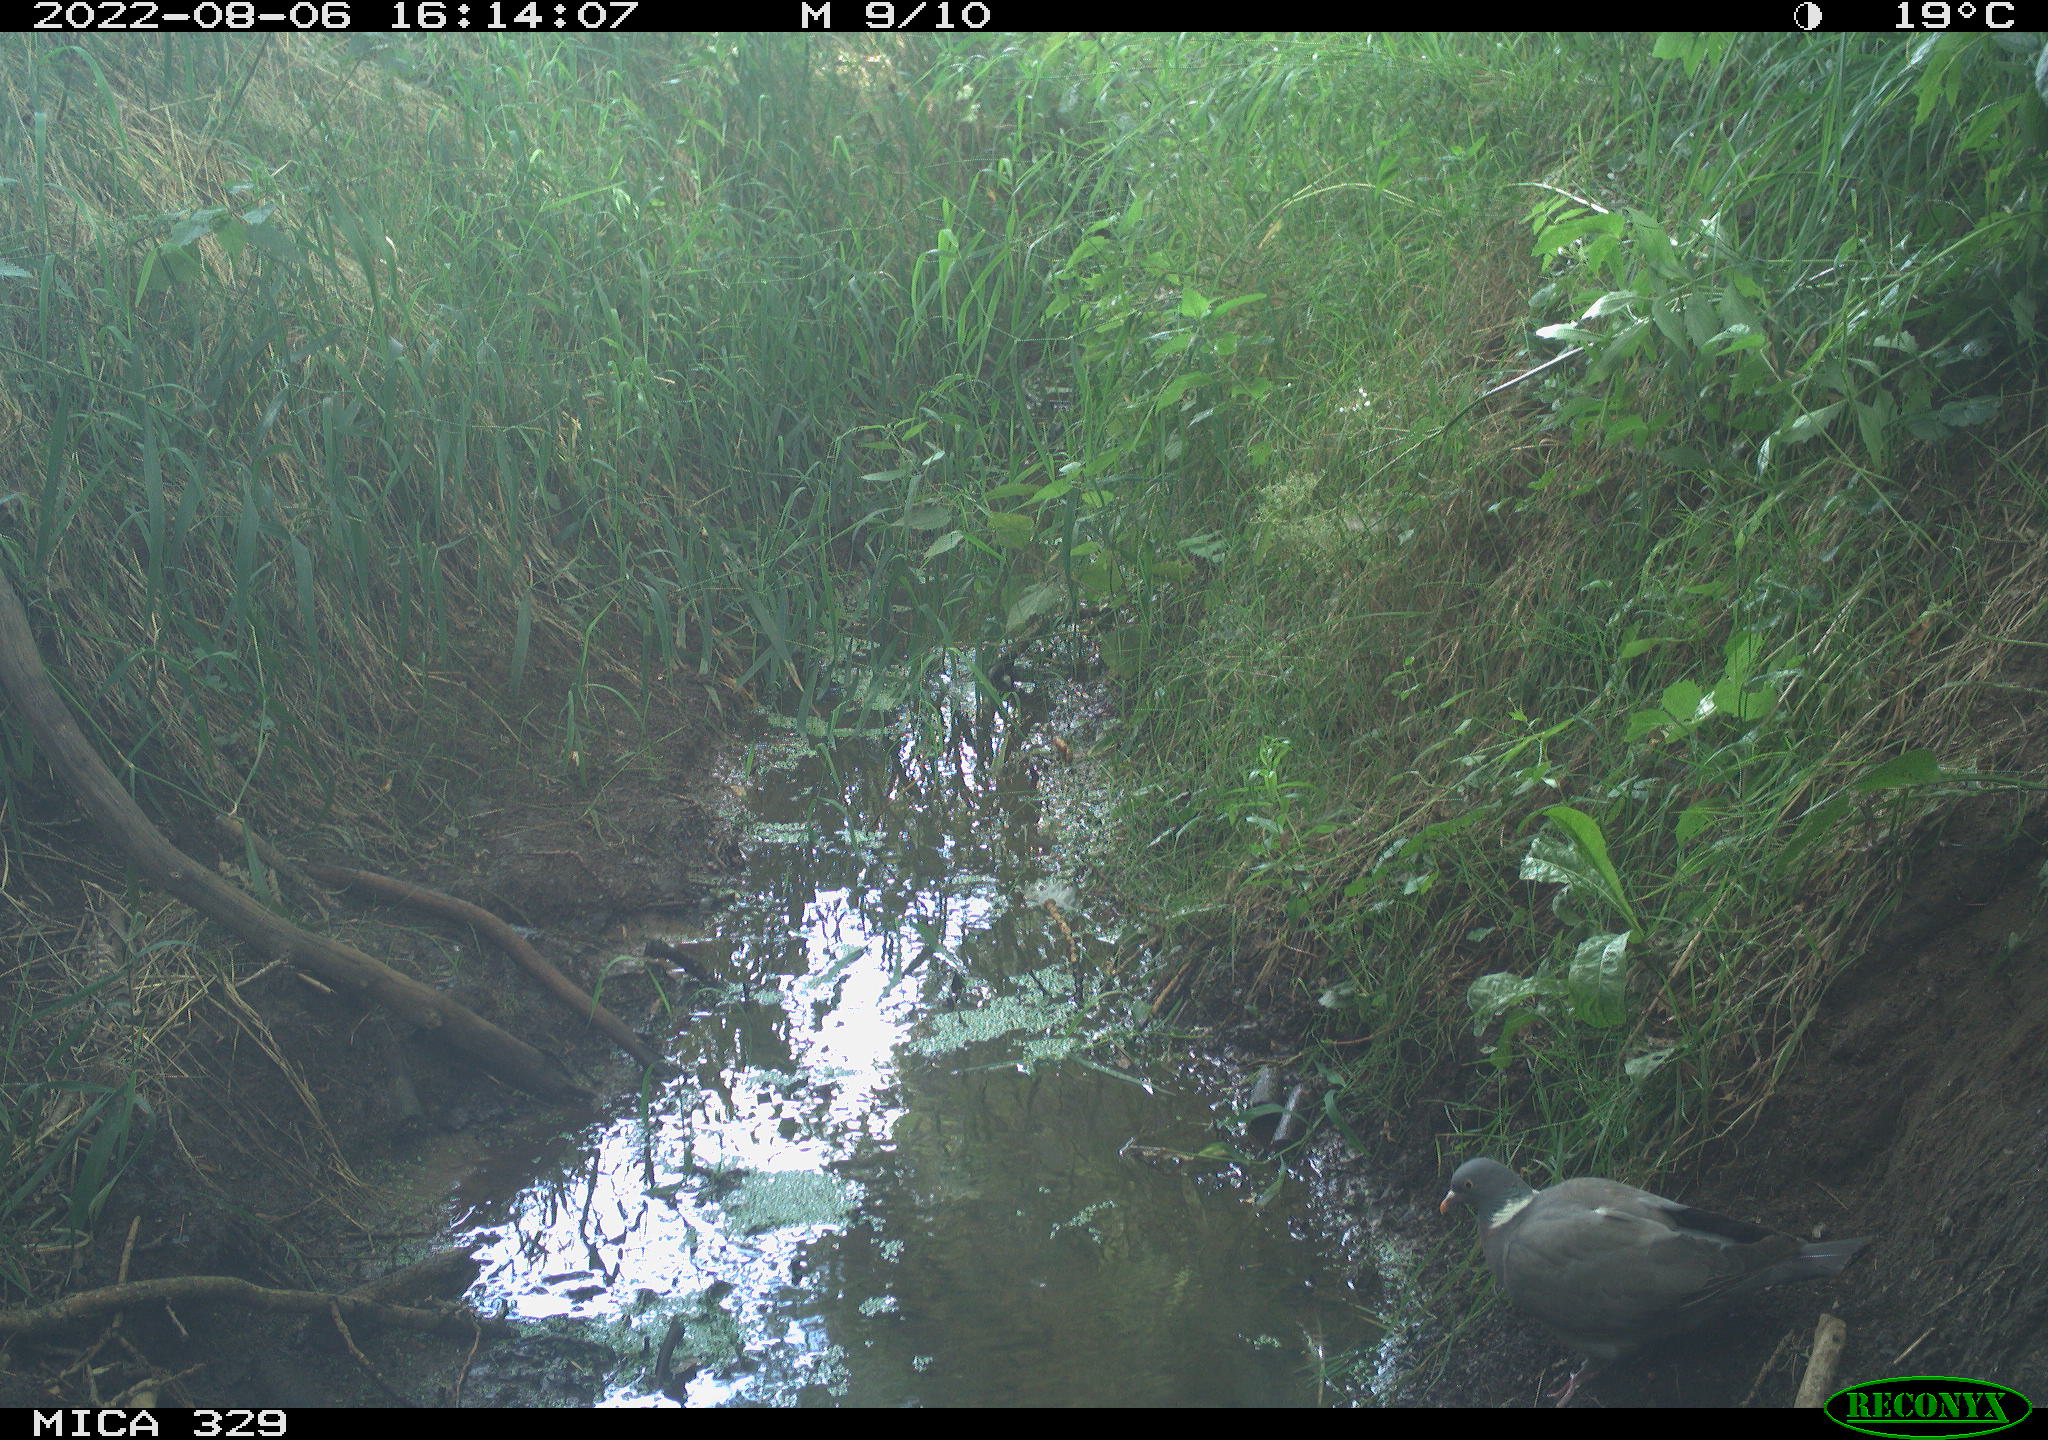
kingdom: Animalia
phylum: Chordata
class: Aves
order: Columbiformes
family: Columbidae
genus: Columba
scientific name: Columba palumbus
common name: Common wood pigeon
